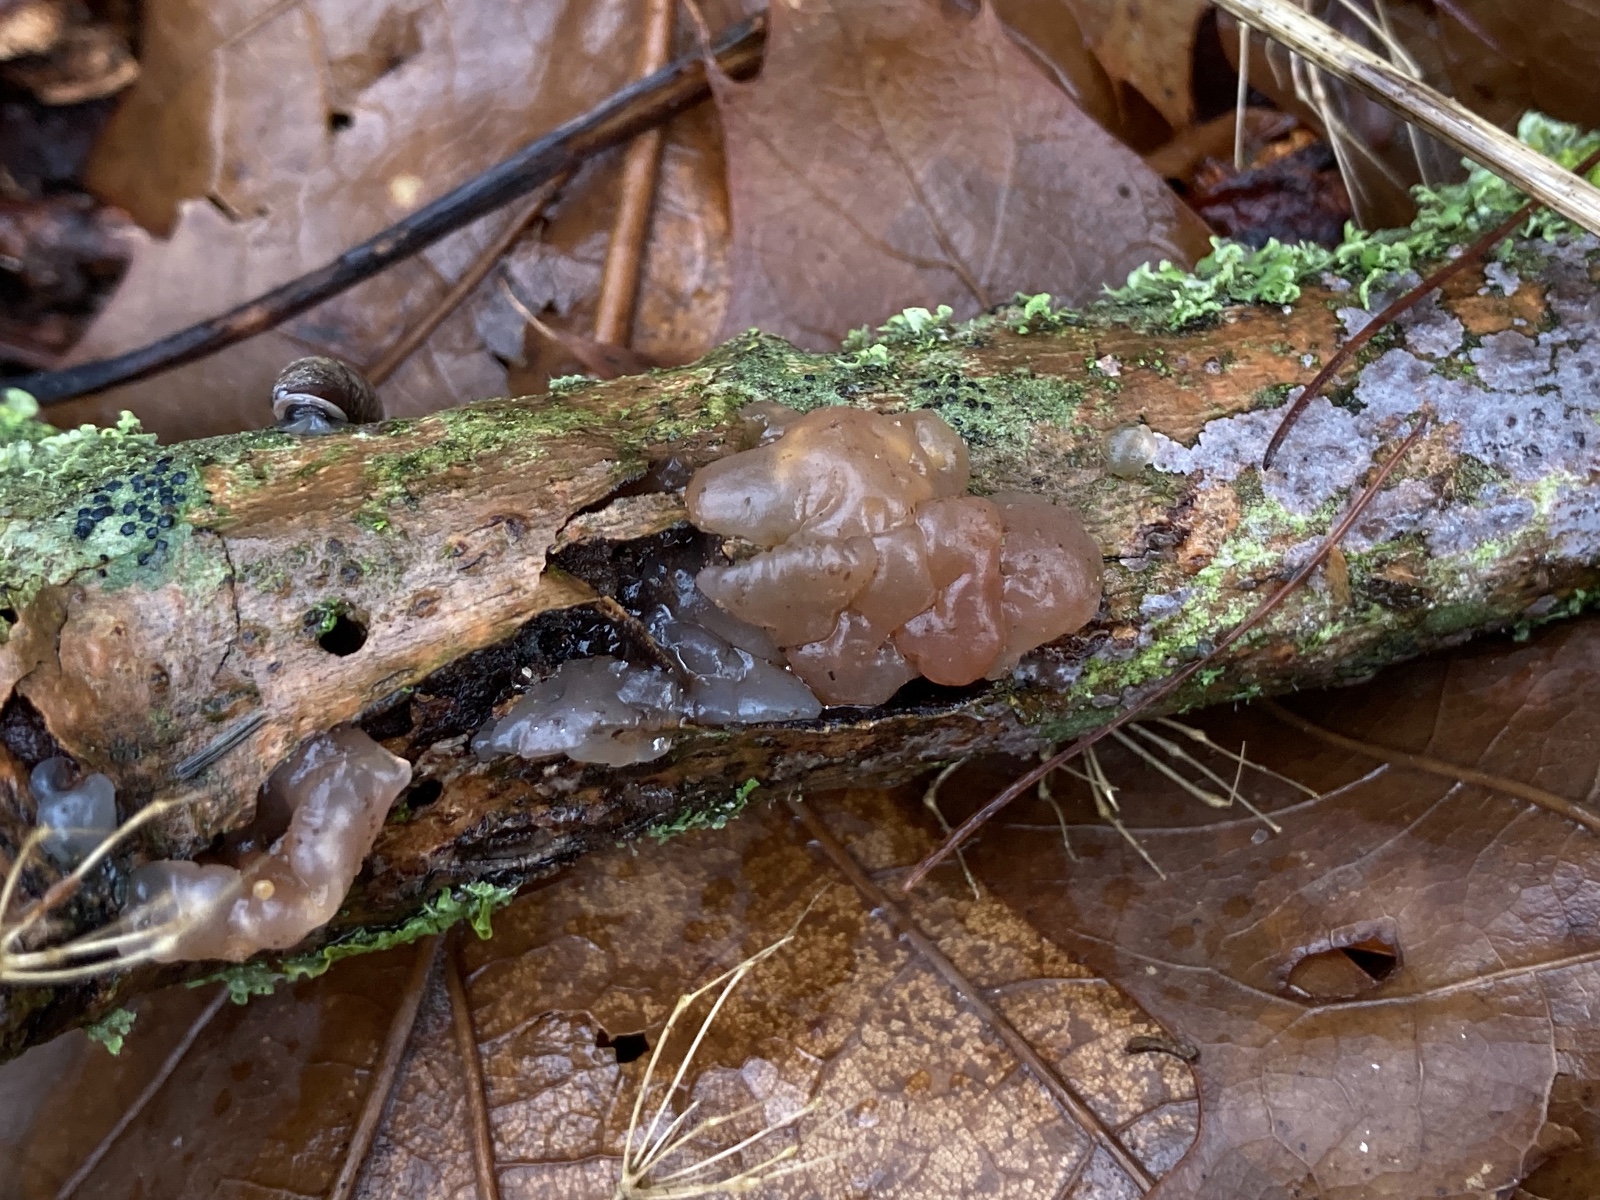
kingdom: Fungi
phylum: Basidiomycota
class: Agaricomycetes
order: Auriculariales
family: Hyaloriaceae
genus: Myxarium
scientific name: Myxarium hyalinum
